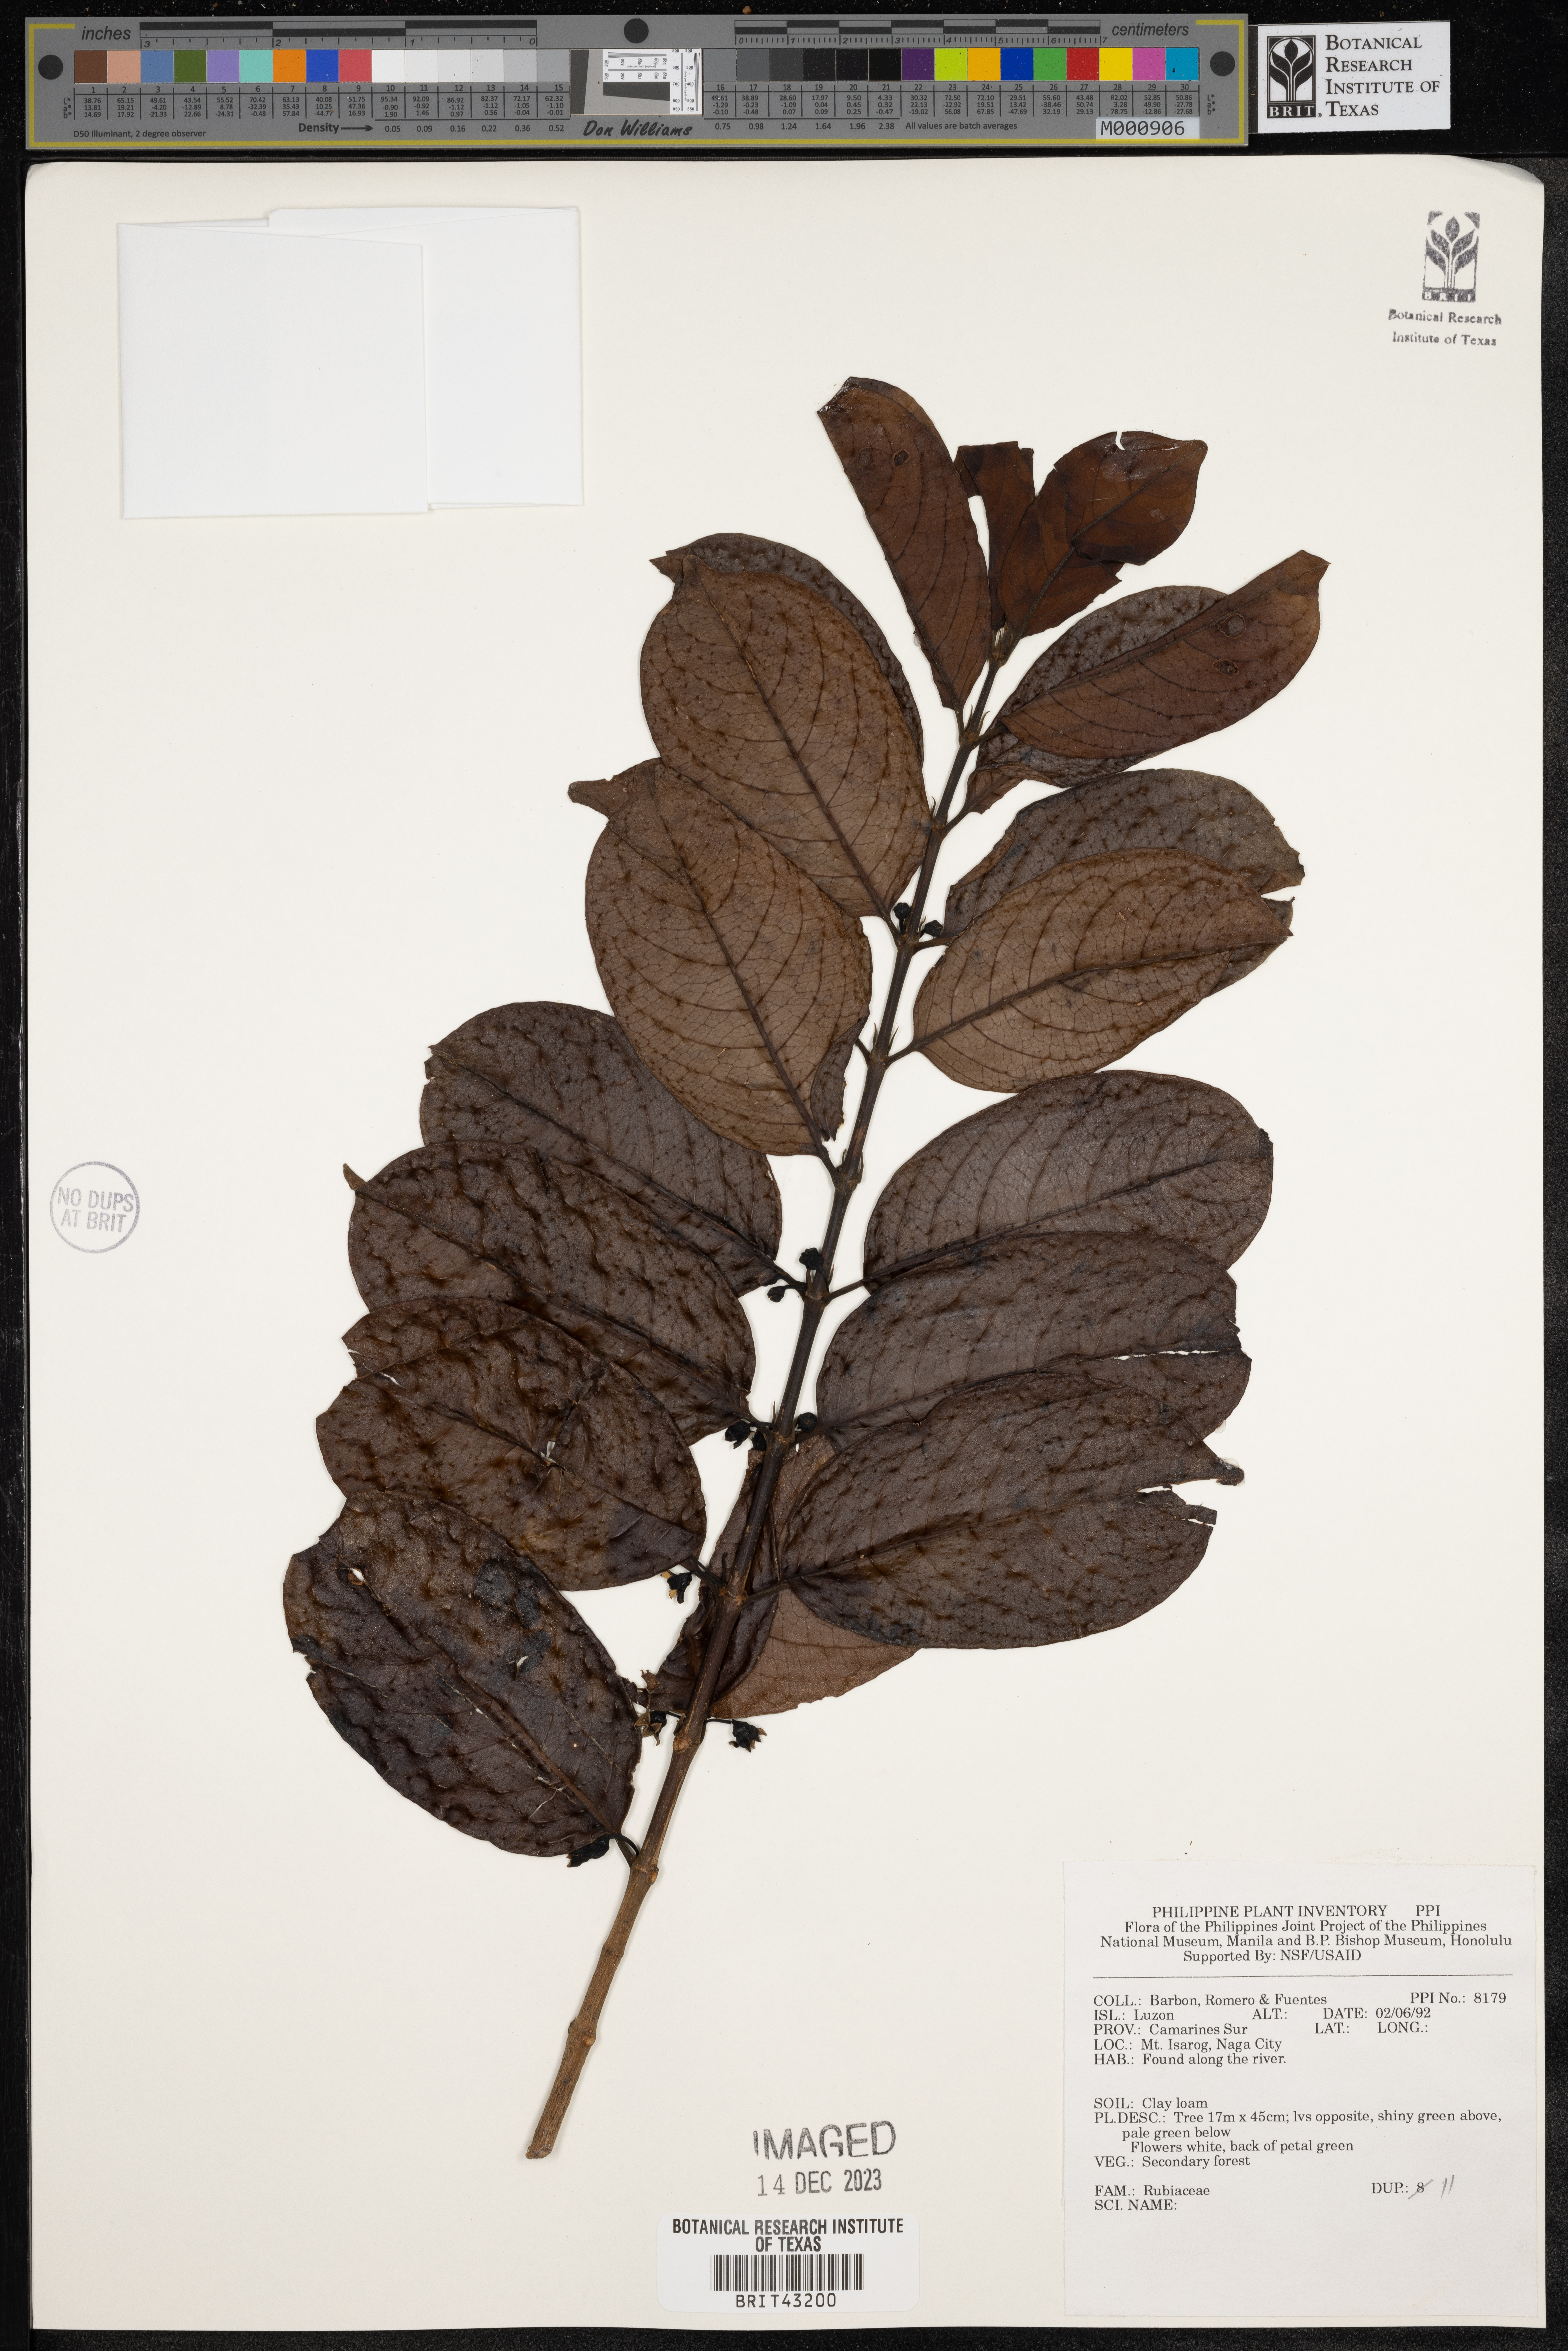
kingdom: Plantae
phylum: Tracheophyta
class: Magnoliopsida
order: Gentianales
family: Rubiaceae
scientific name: Rubiaceae
